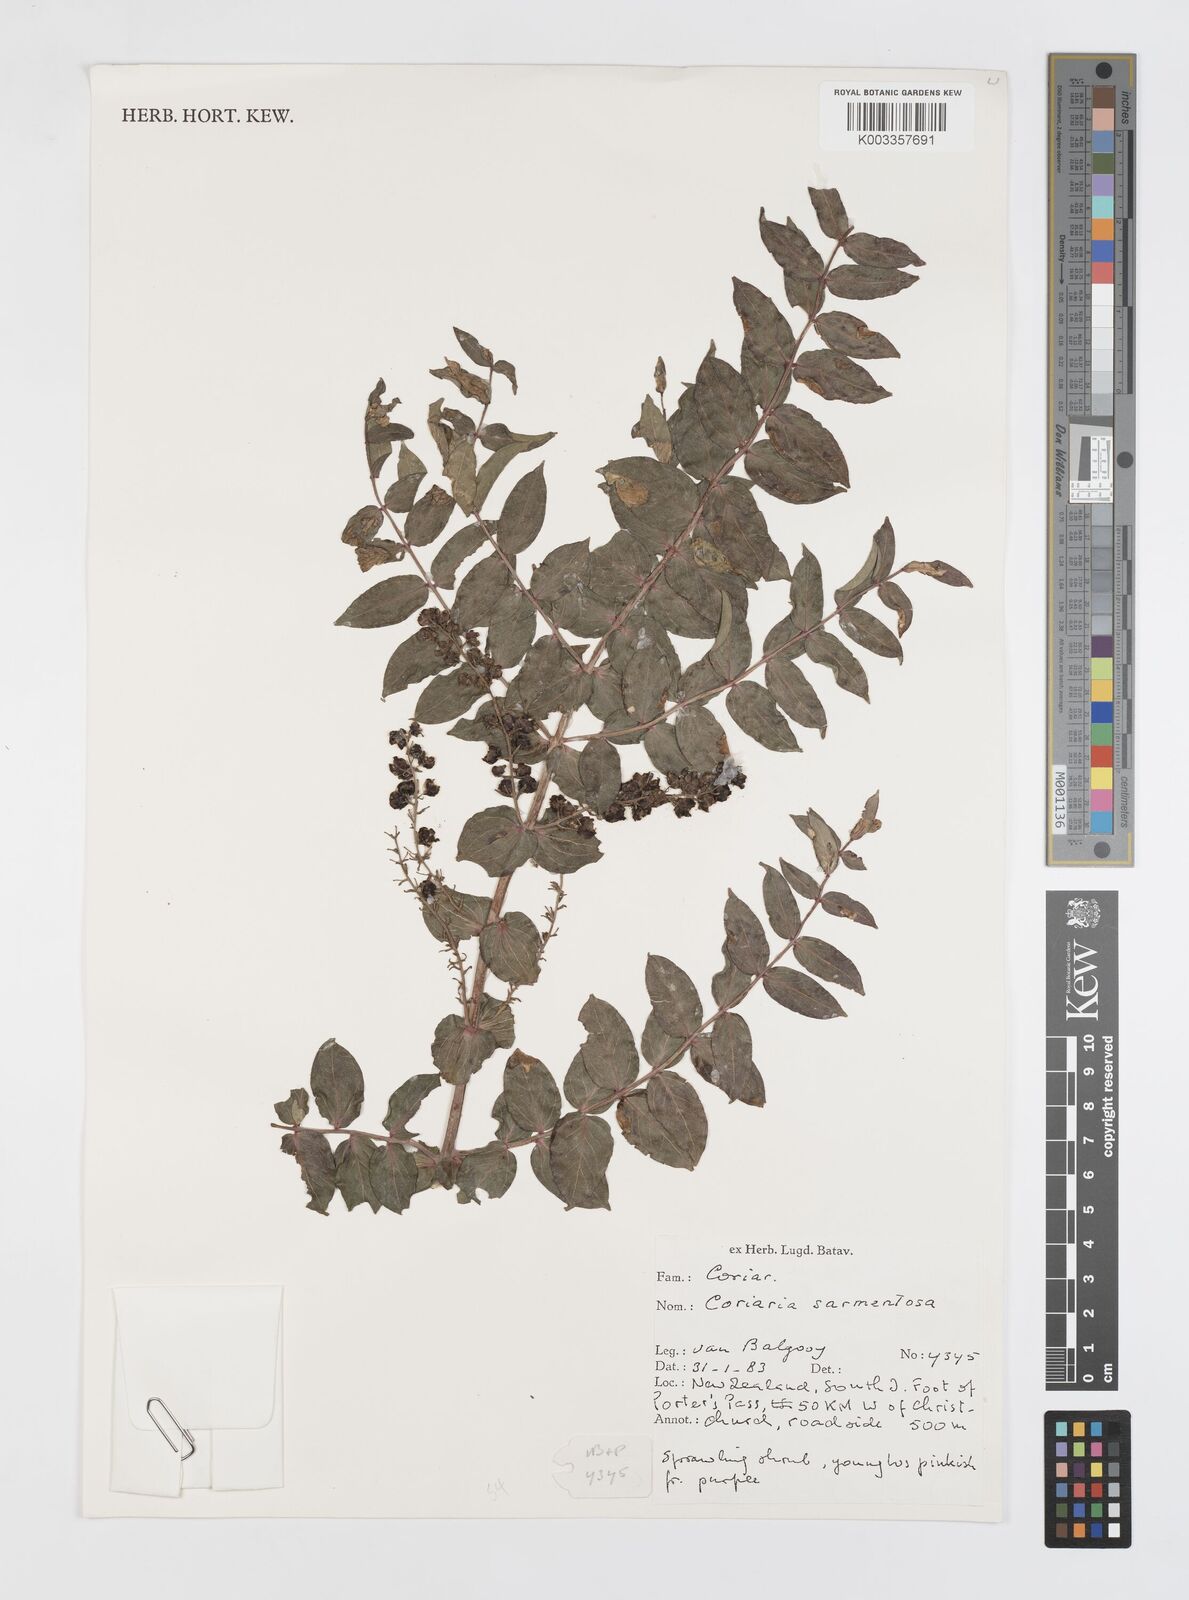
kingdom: Plantae
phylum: Tracheophyta
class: Magnoliopsida
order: Cucurbitales
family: Coriariaceae
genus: Coriaria
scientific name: Coriaria sarmentosa
